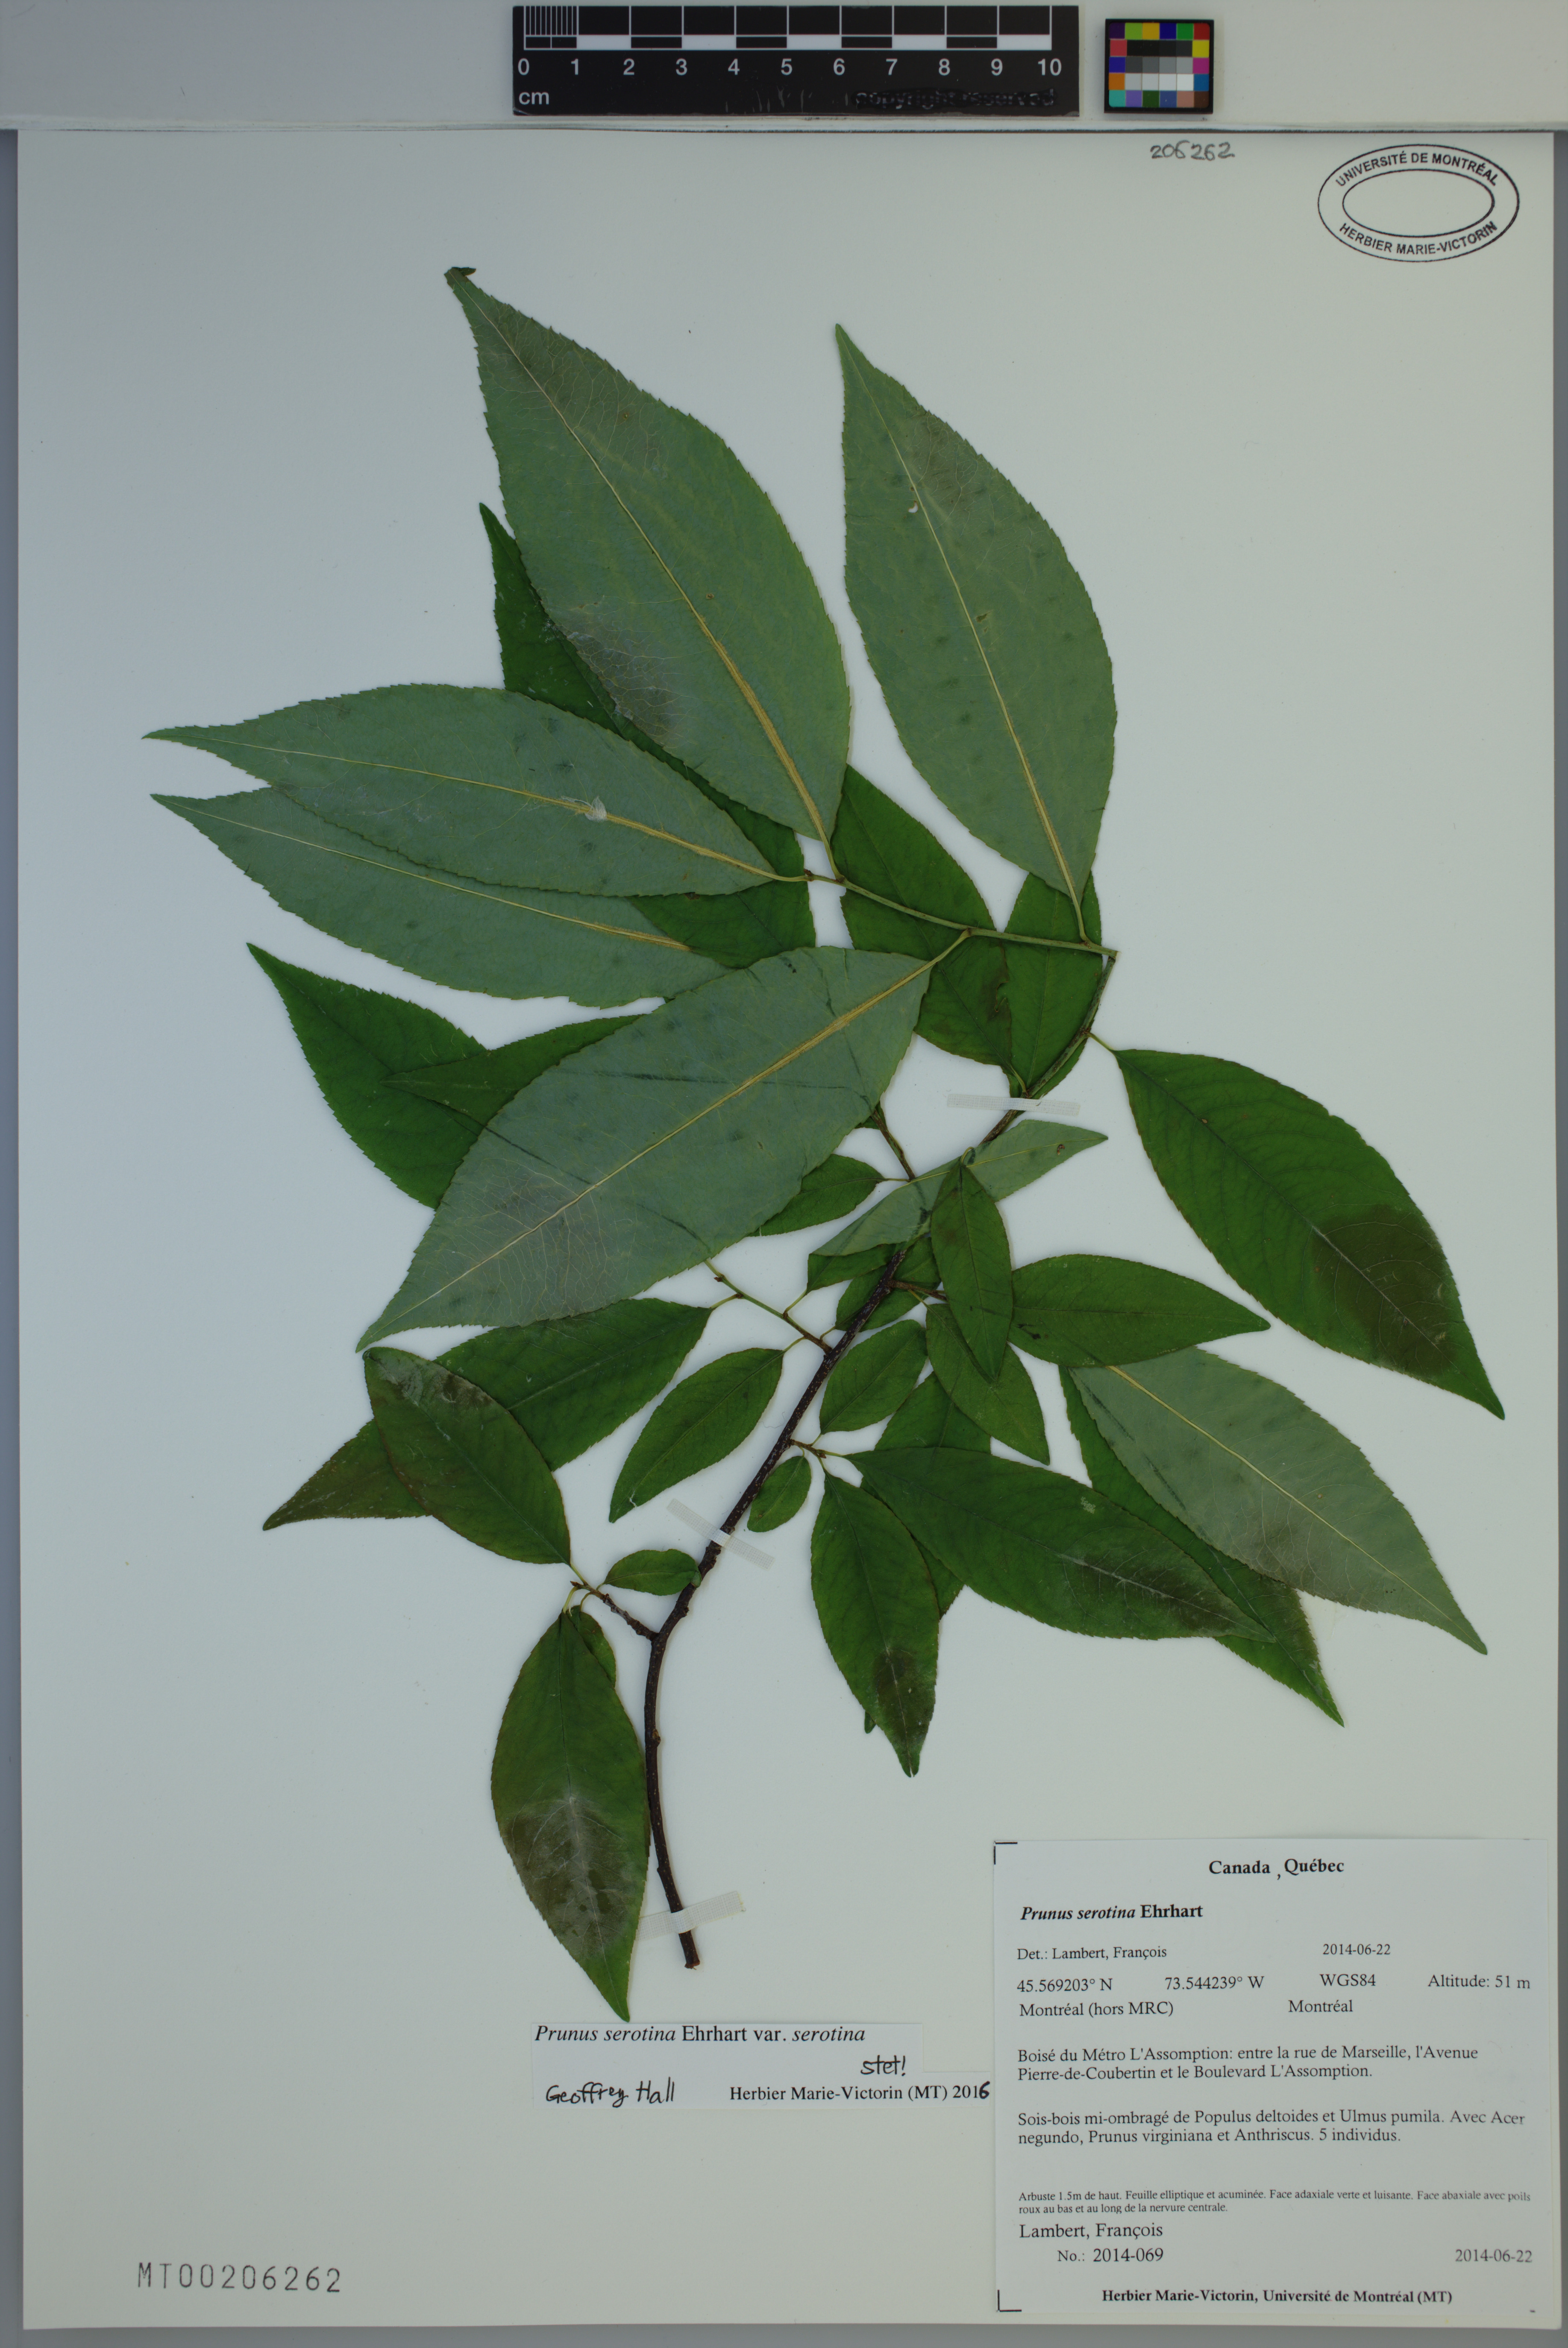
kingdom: Plantae
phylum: Tracheophyta
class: Magnoliopsida
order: Rosales
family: Rosaceae
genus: Prunus
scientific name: Prunus serotina
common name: Black cherry
